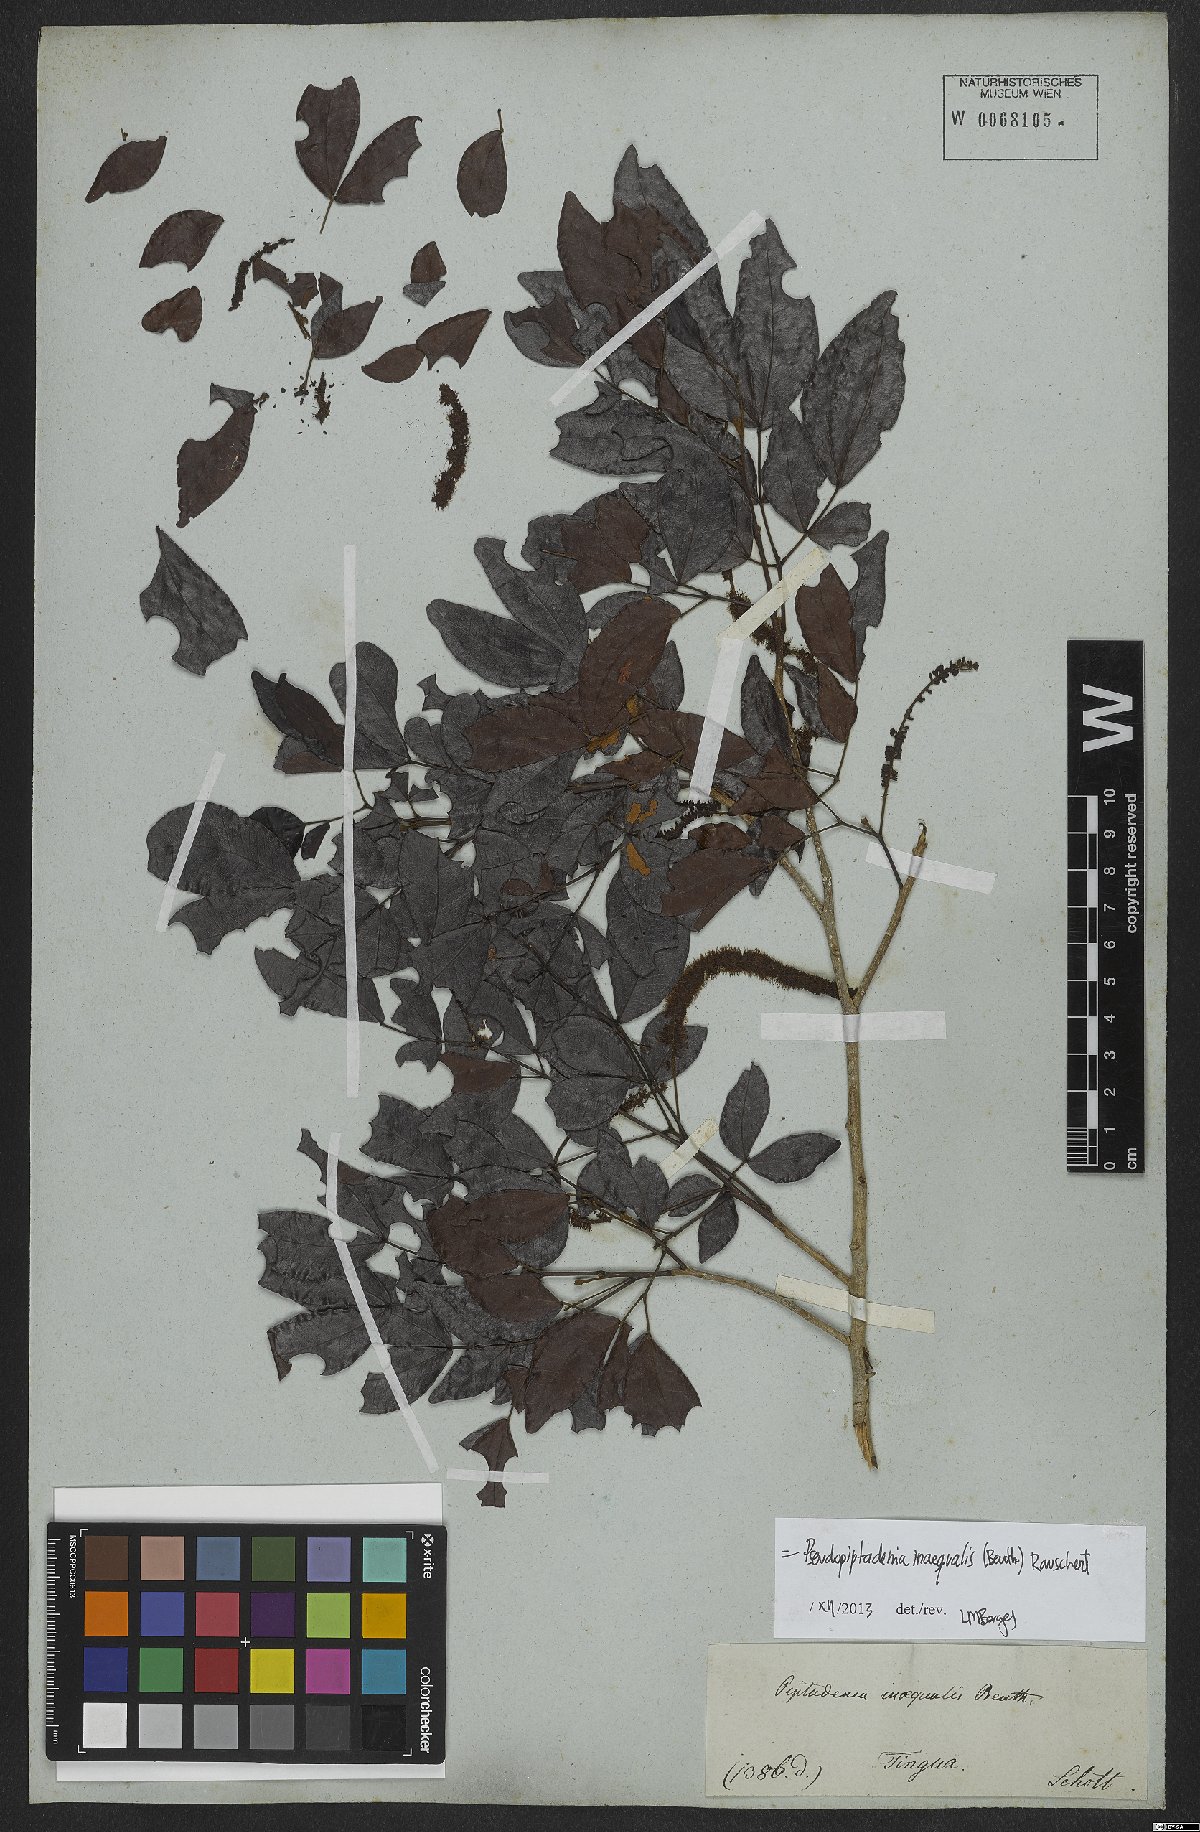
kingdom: Plantae
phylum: Tracheophyta
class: Magnoliopsida
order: Fabales
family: Fabaceae
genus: Pseudopiptadenia
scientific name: Pseudopiptadenia inaequalis
